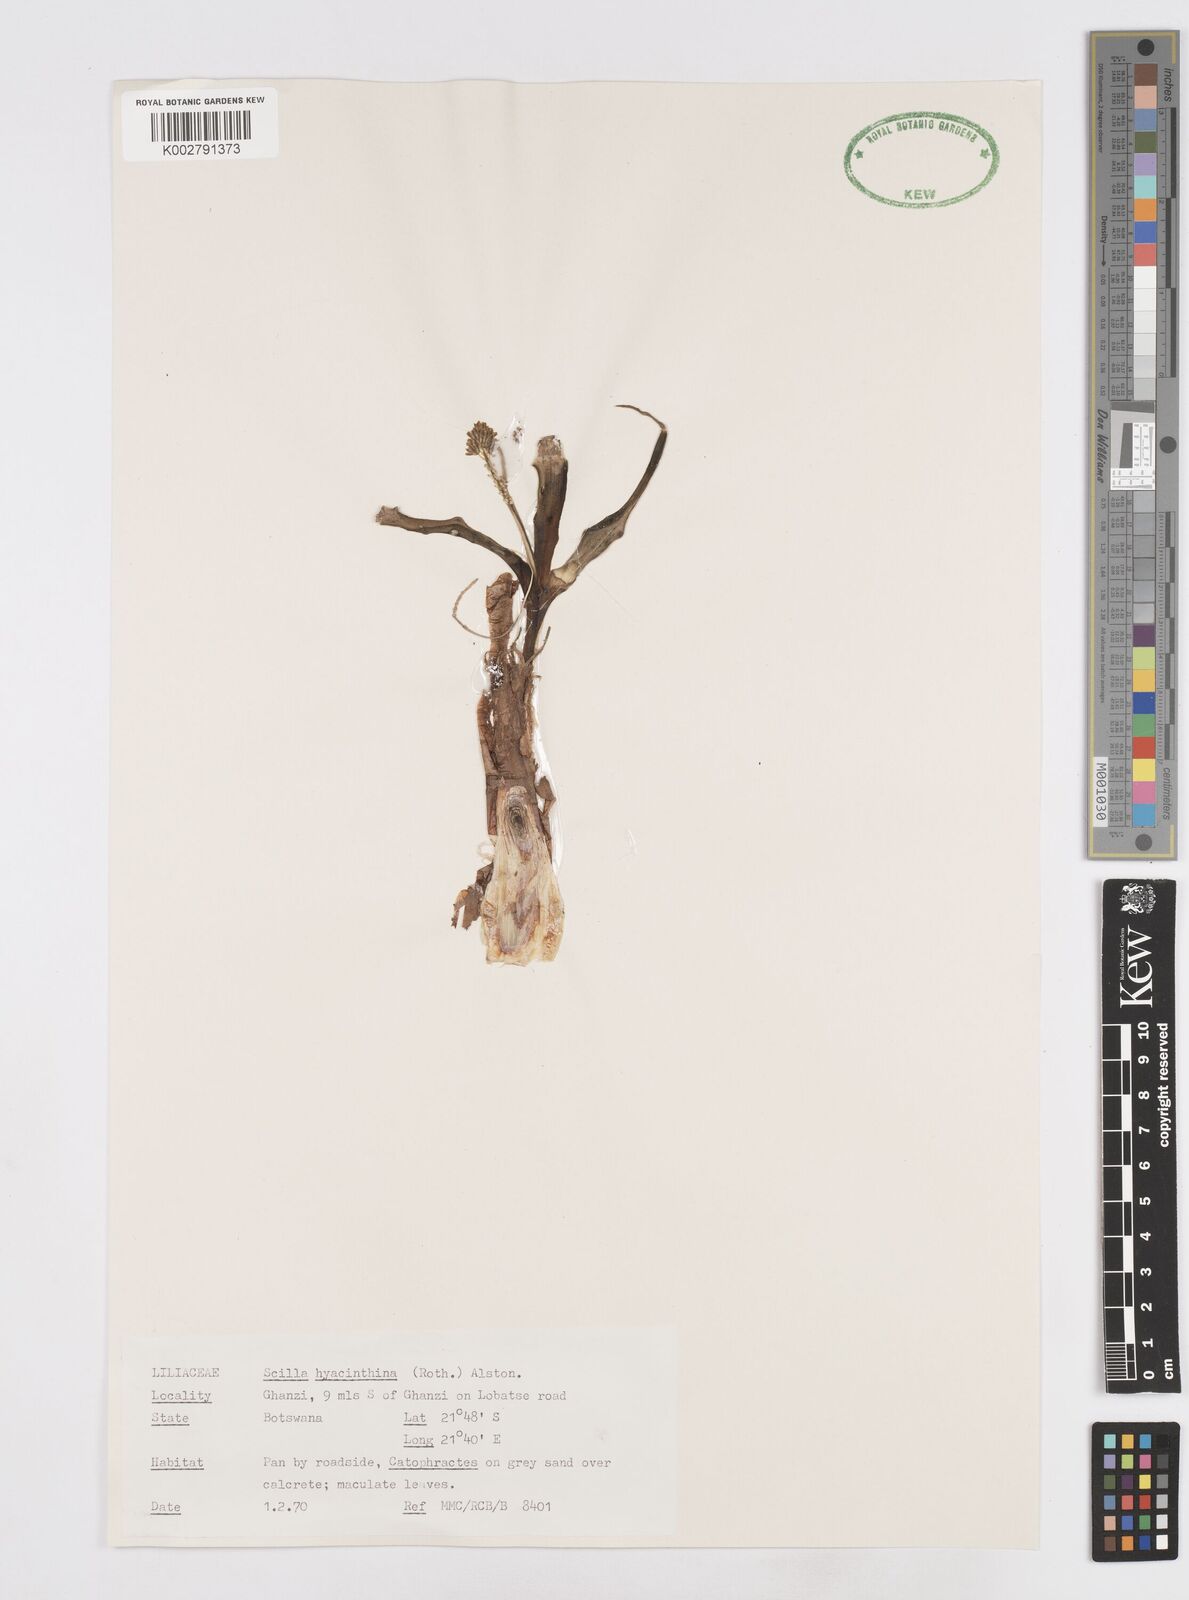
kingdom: Plantae
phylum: Tracheophyta
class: Liliopsida
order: Asparagales
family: Asparagaceae
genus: Ledebouria
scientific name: Ledebouria revoluta
